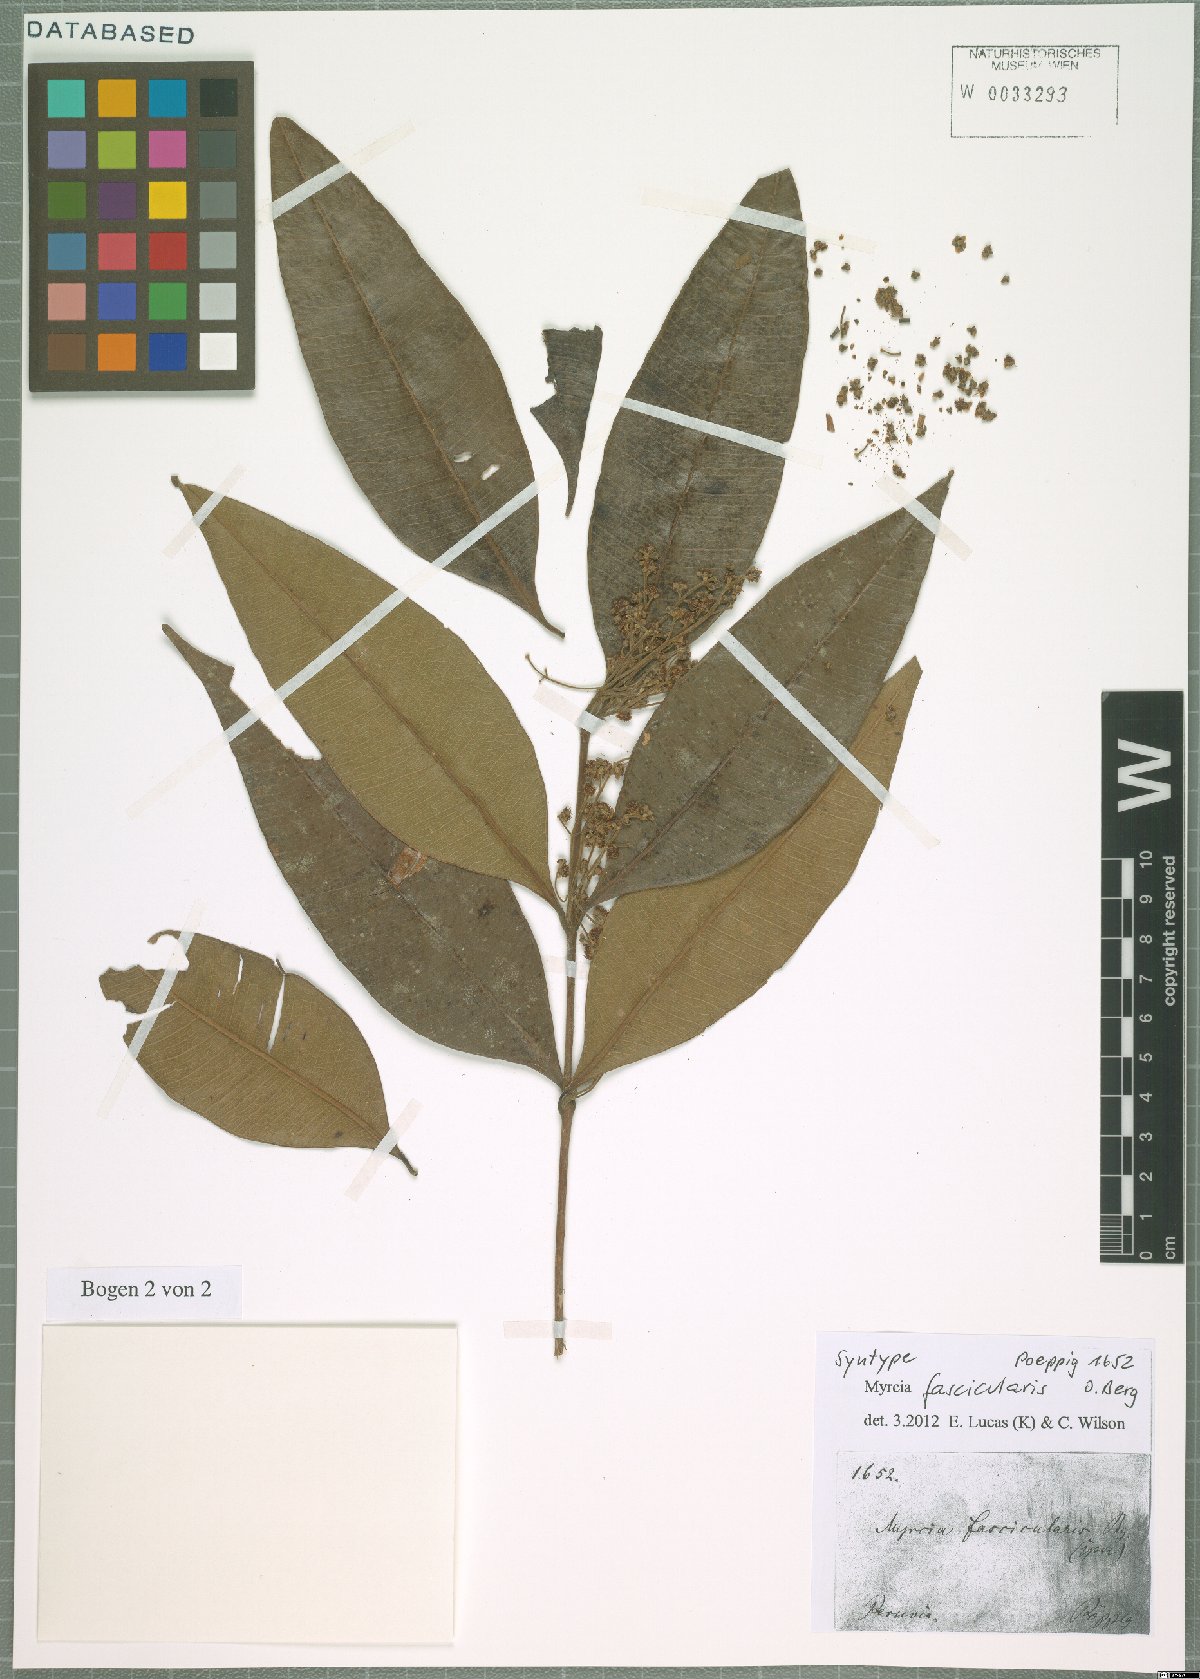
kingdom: Plantae
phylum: Tracheophyta
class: Magnoliopsida
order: Myrtales
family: Myrtaceae
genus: Myrcia
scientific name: Myrcia fascicularis
